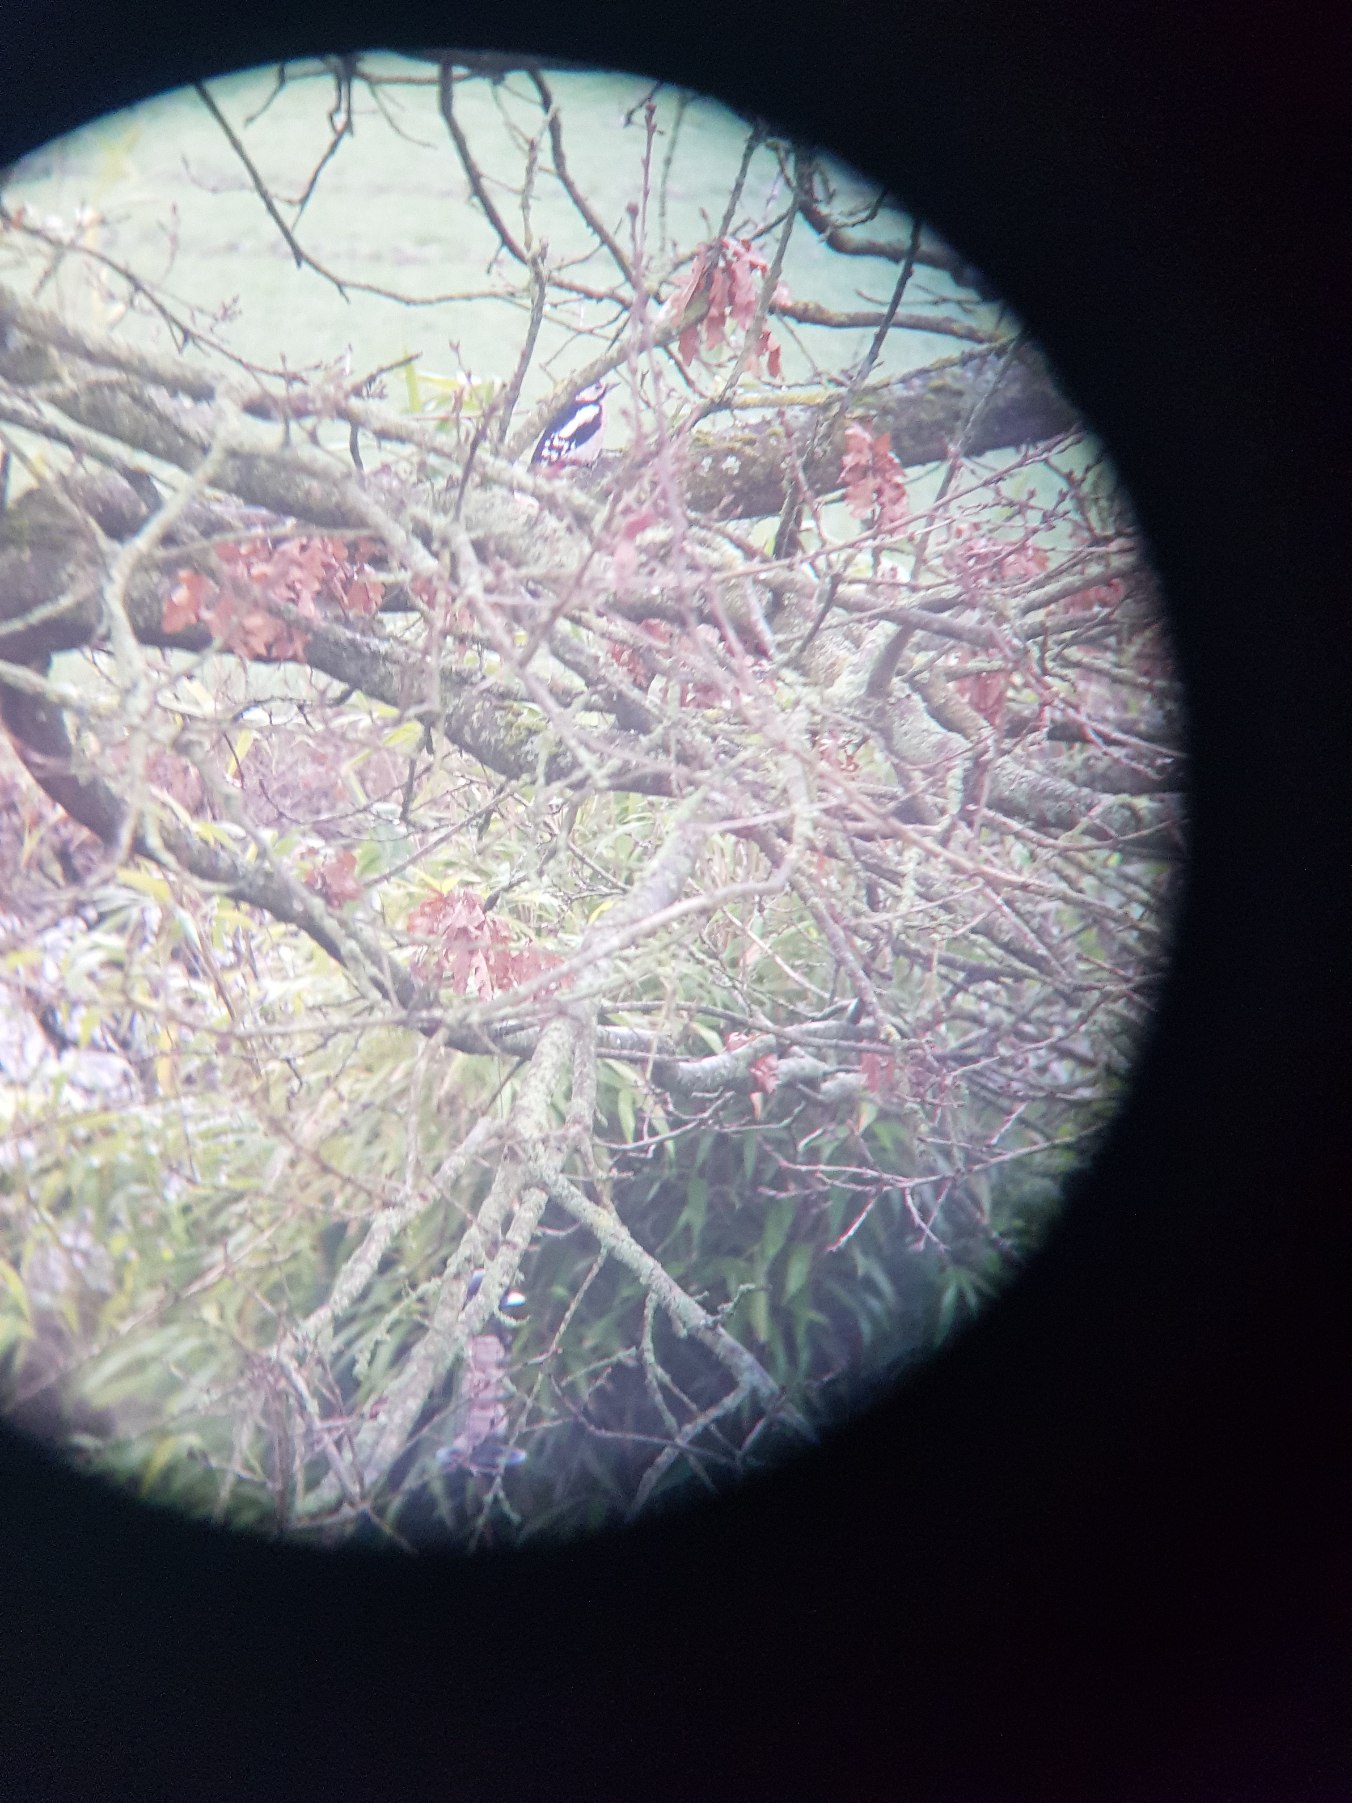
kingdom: Animalia
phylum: Chordata
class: Aves
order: Piciformes
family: Picidae
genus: Dendrocopos
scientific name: Dendrocopos major
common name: Stor flagspætte
